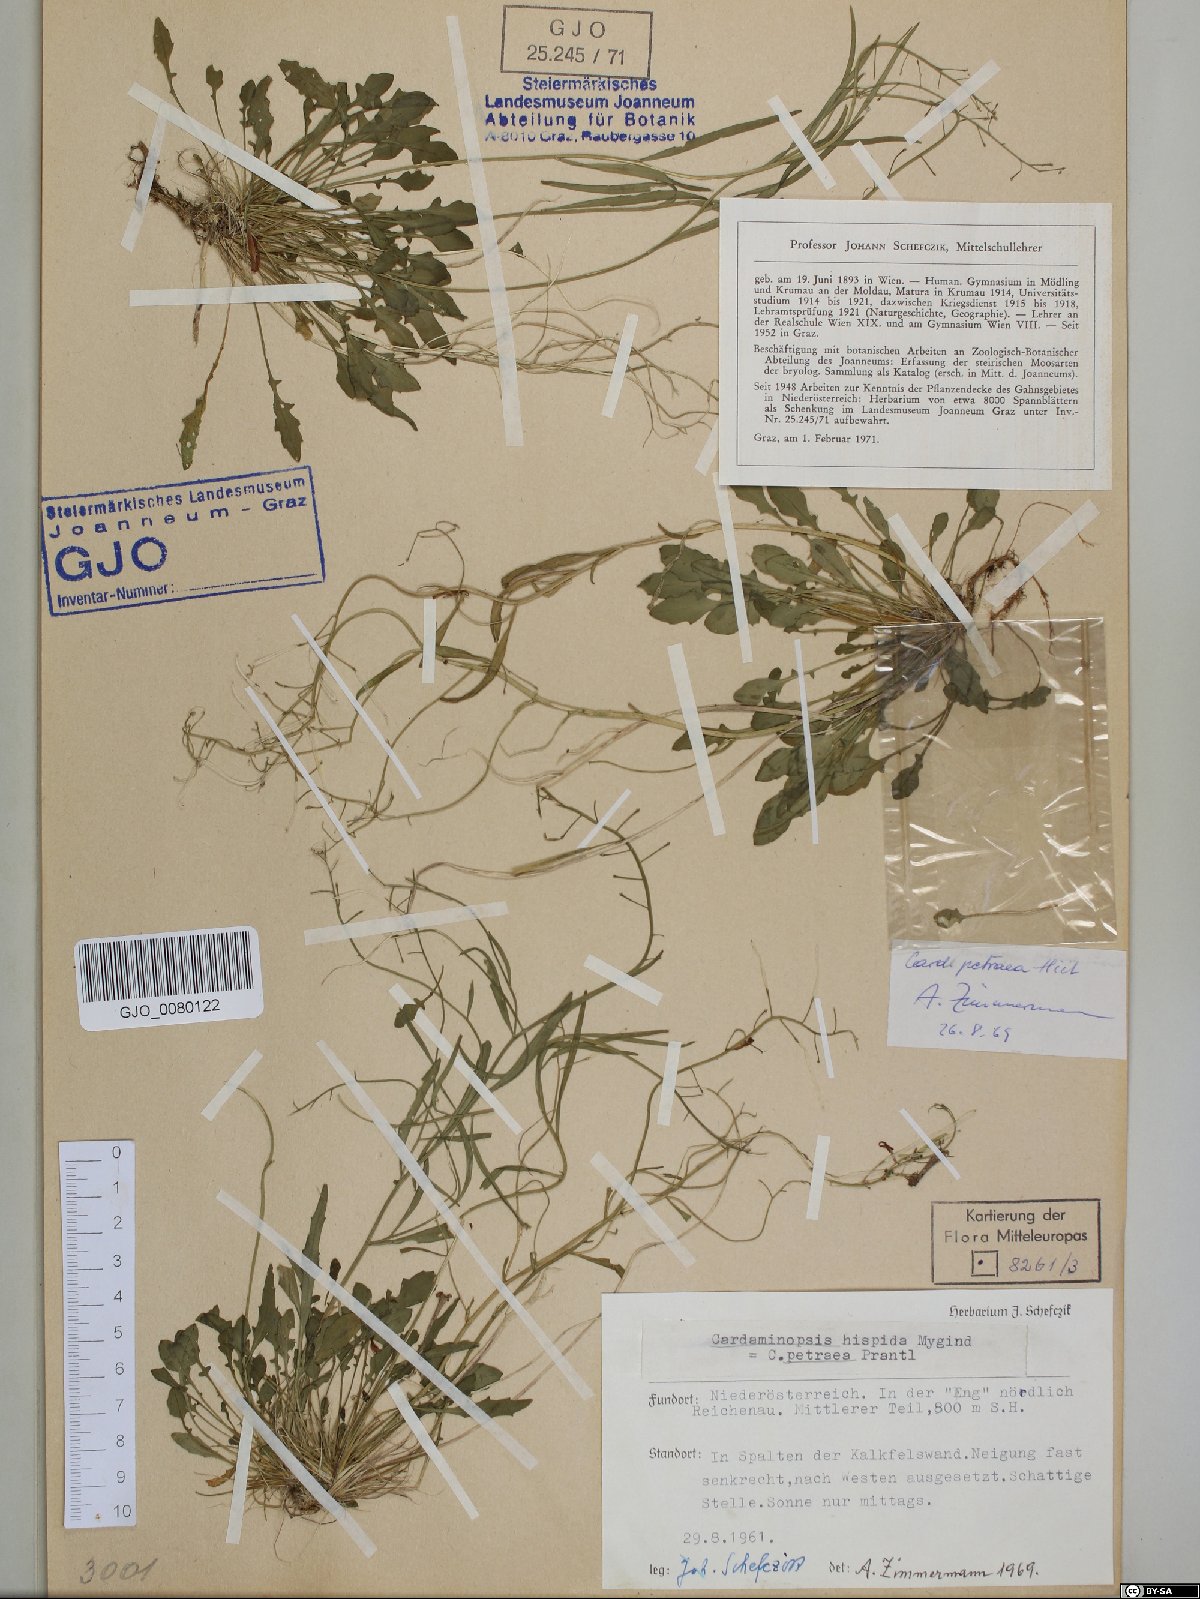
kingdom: Plantae
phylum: Tracheophyta
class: Magnoliopsida
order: Brassicales
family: Brassicaceae
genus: Arabidopsis
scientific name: Arabidopsis lyrata
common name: Lyrate rockcress
